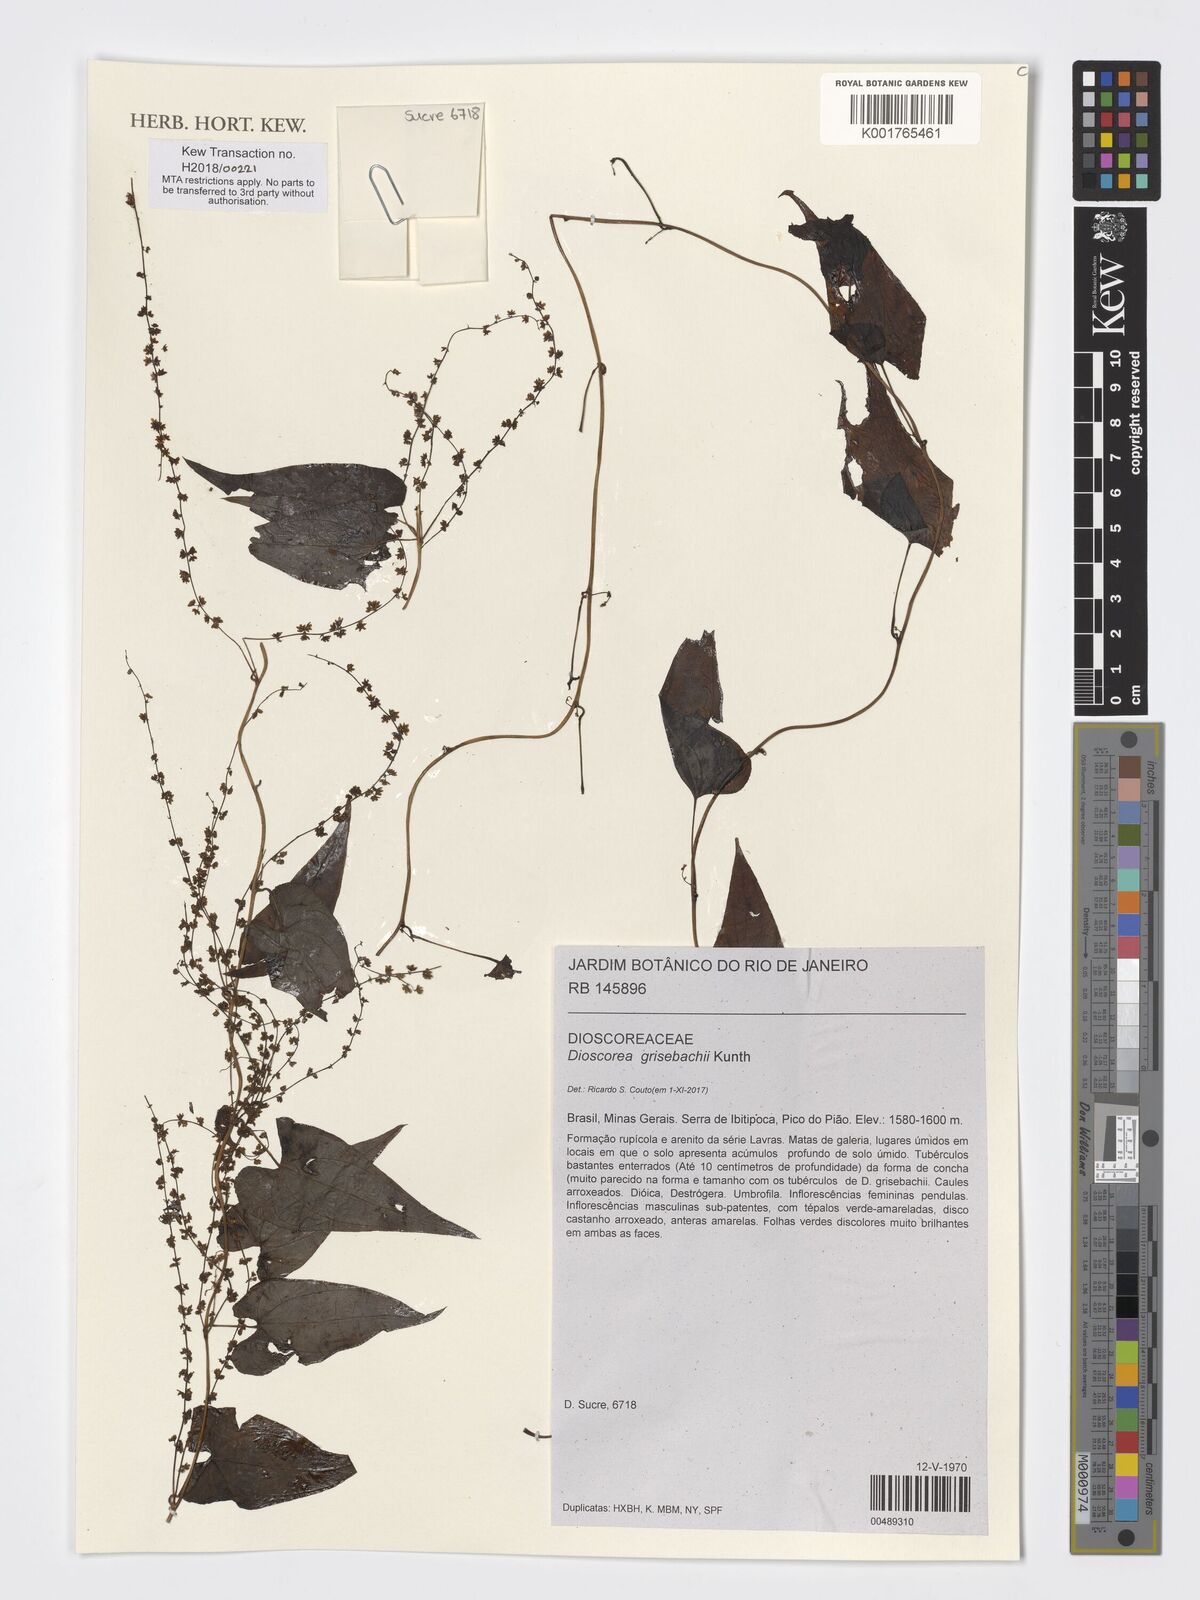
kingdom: Plantae
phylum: Tracheophyta
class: Liliopsida
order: Dioscoreales
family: Dioscoreaceae
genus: Dioscorea
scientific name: Dioscorea grisebachii
